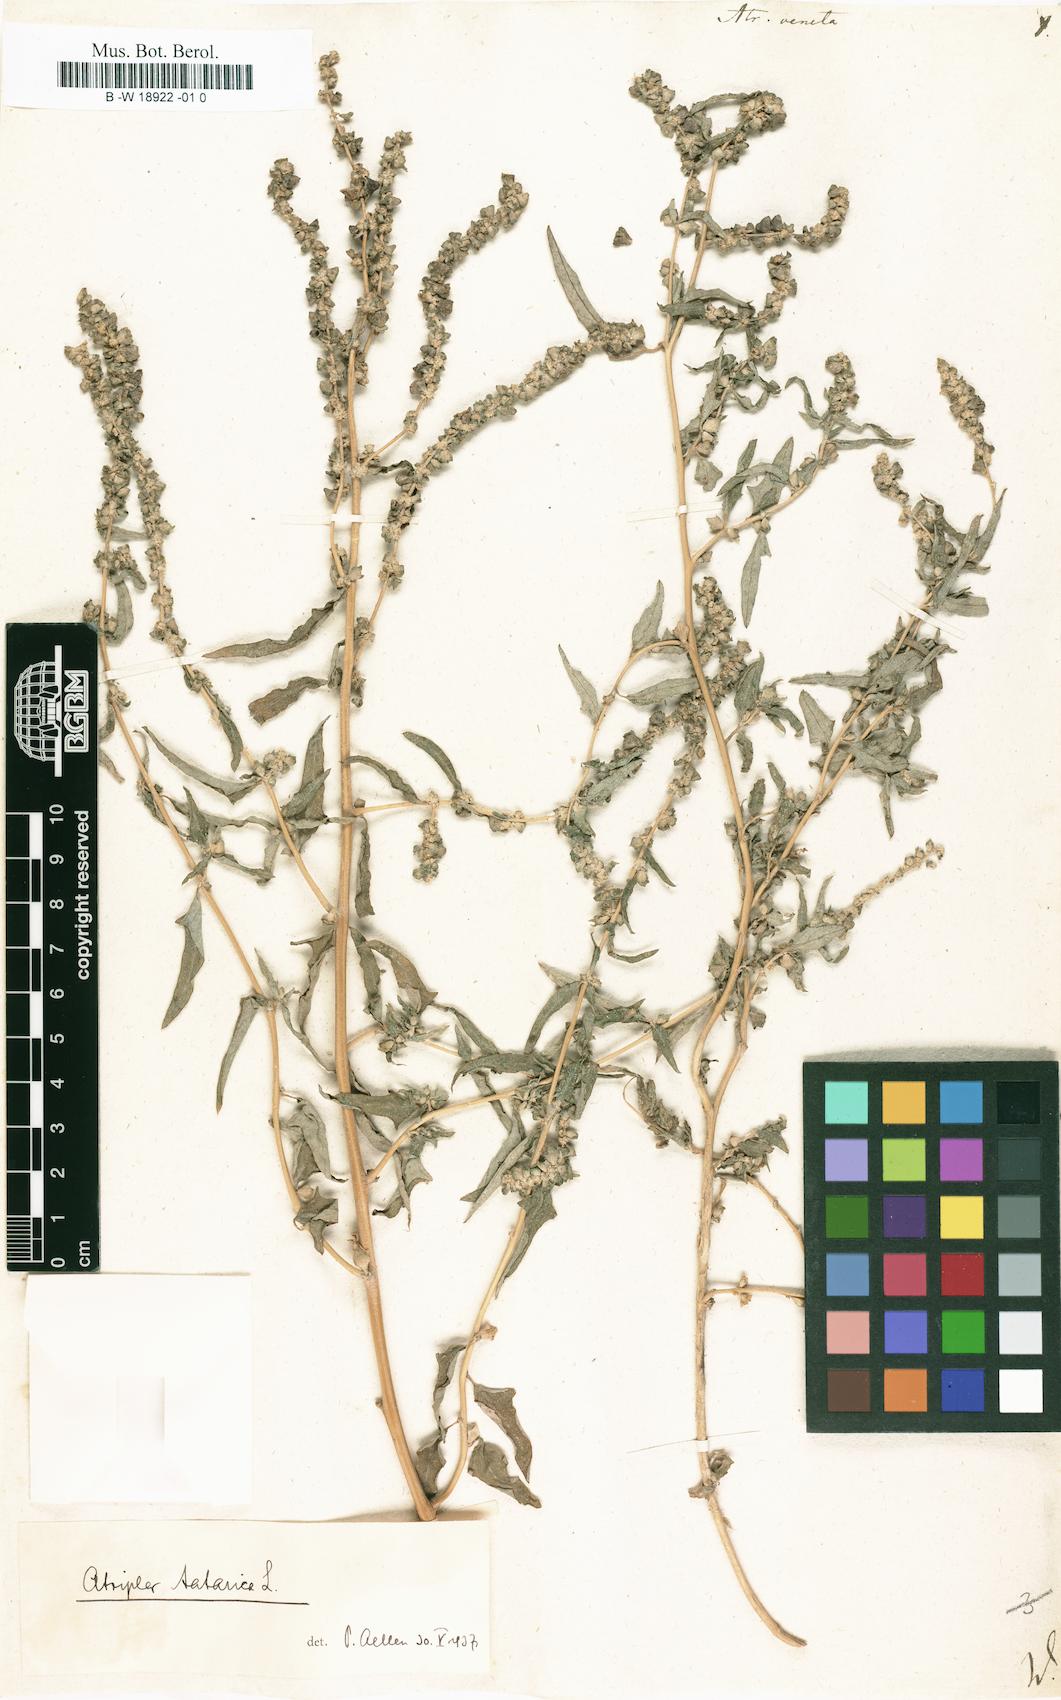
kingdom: Plantae
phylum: Tracheophyta
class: Magnoliopsida
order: Caryophyllales
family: Amaranthaceae
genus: Atriplex
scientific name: Atriplex tatarica
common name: Tatarian orache
